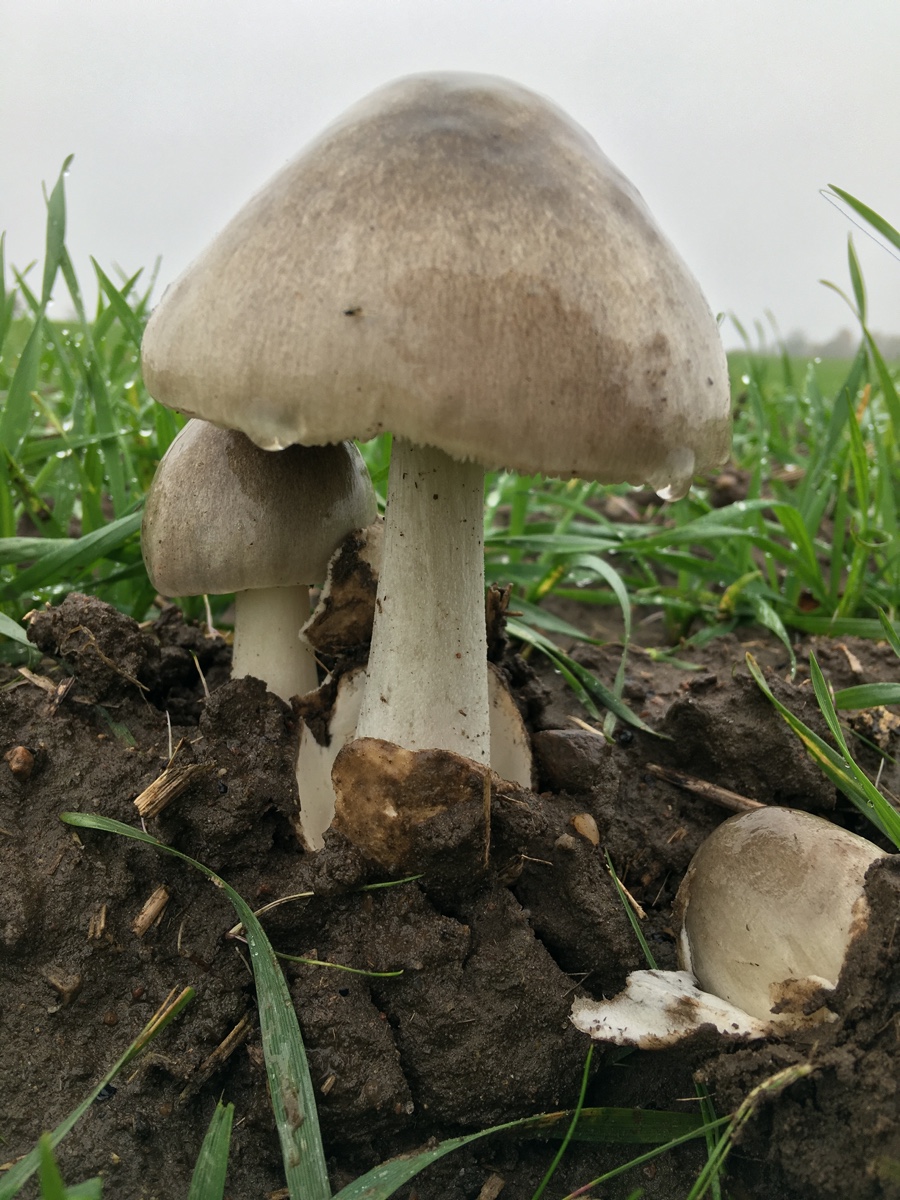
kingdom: Fungi
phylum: Basidiomycota
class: Agaricomycetes
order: Agaricales
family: Pluteaceae
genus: Volvopluteus
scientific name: Volvopluteus gloiocephalus
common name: høj posesvamp
